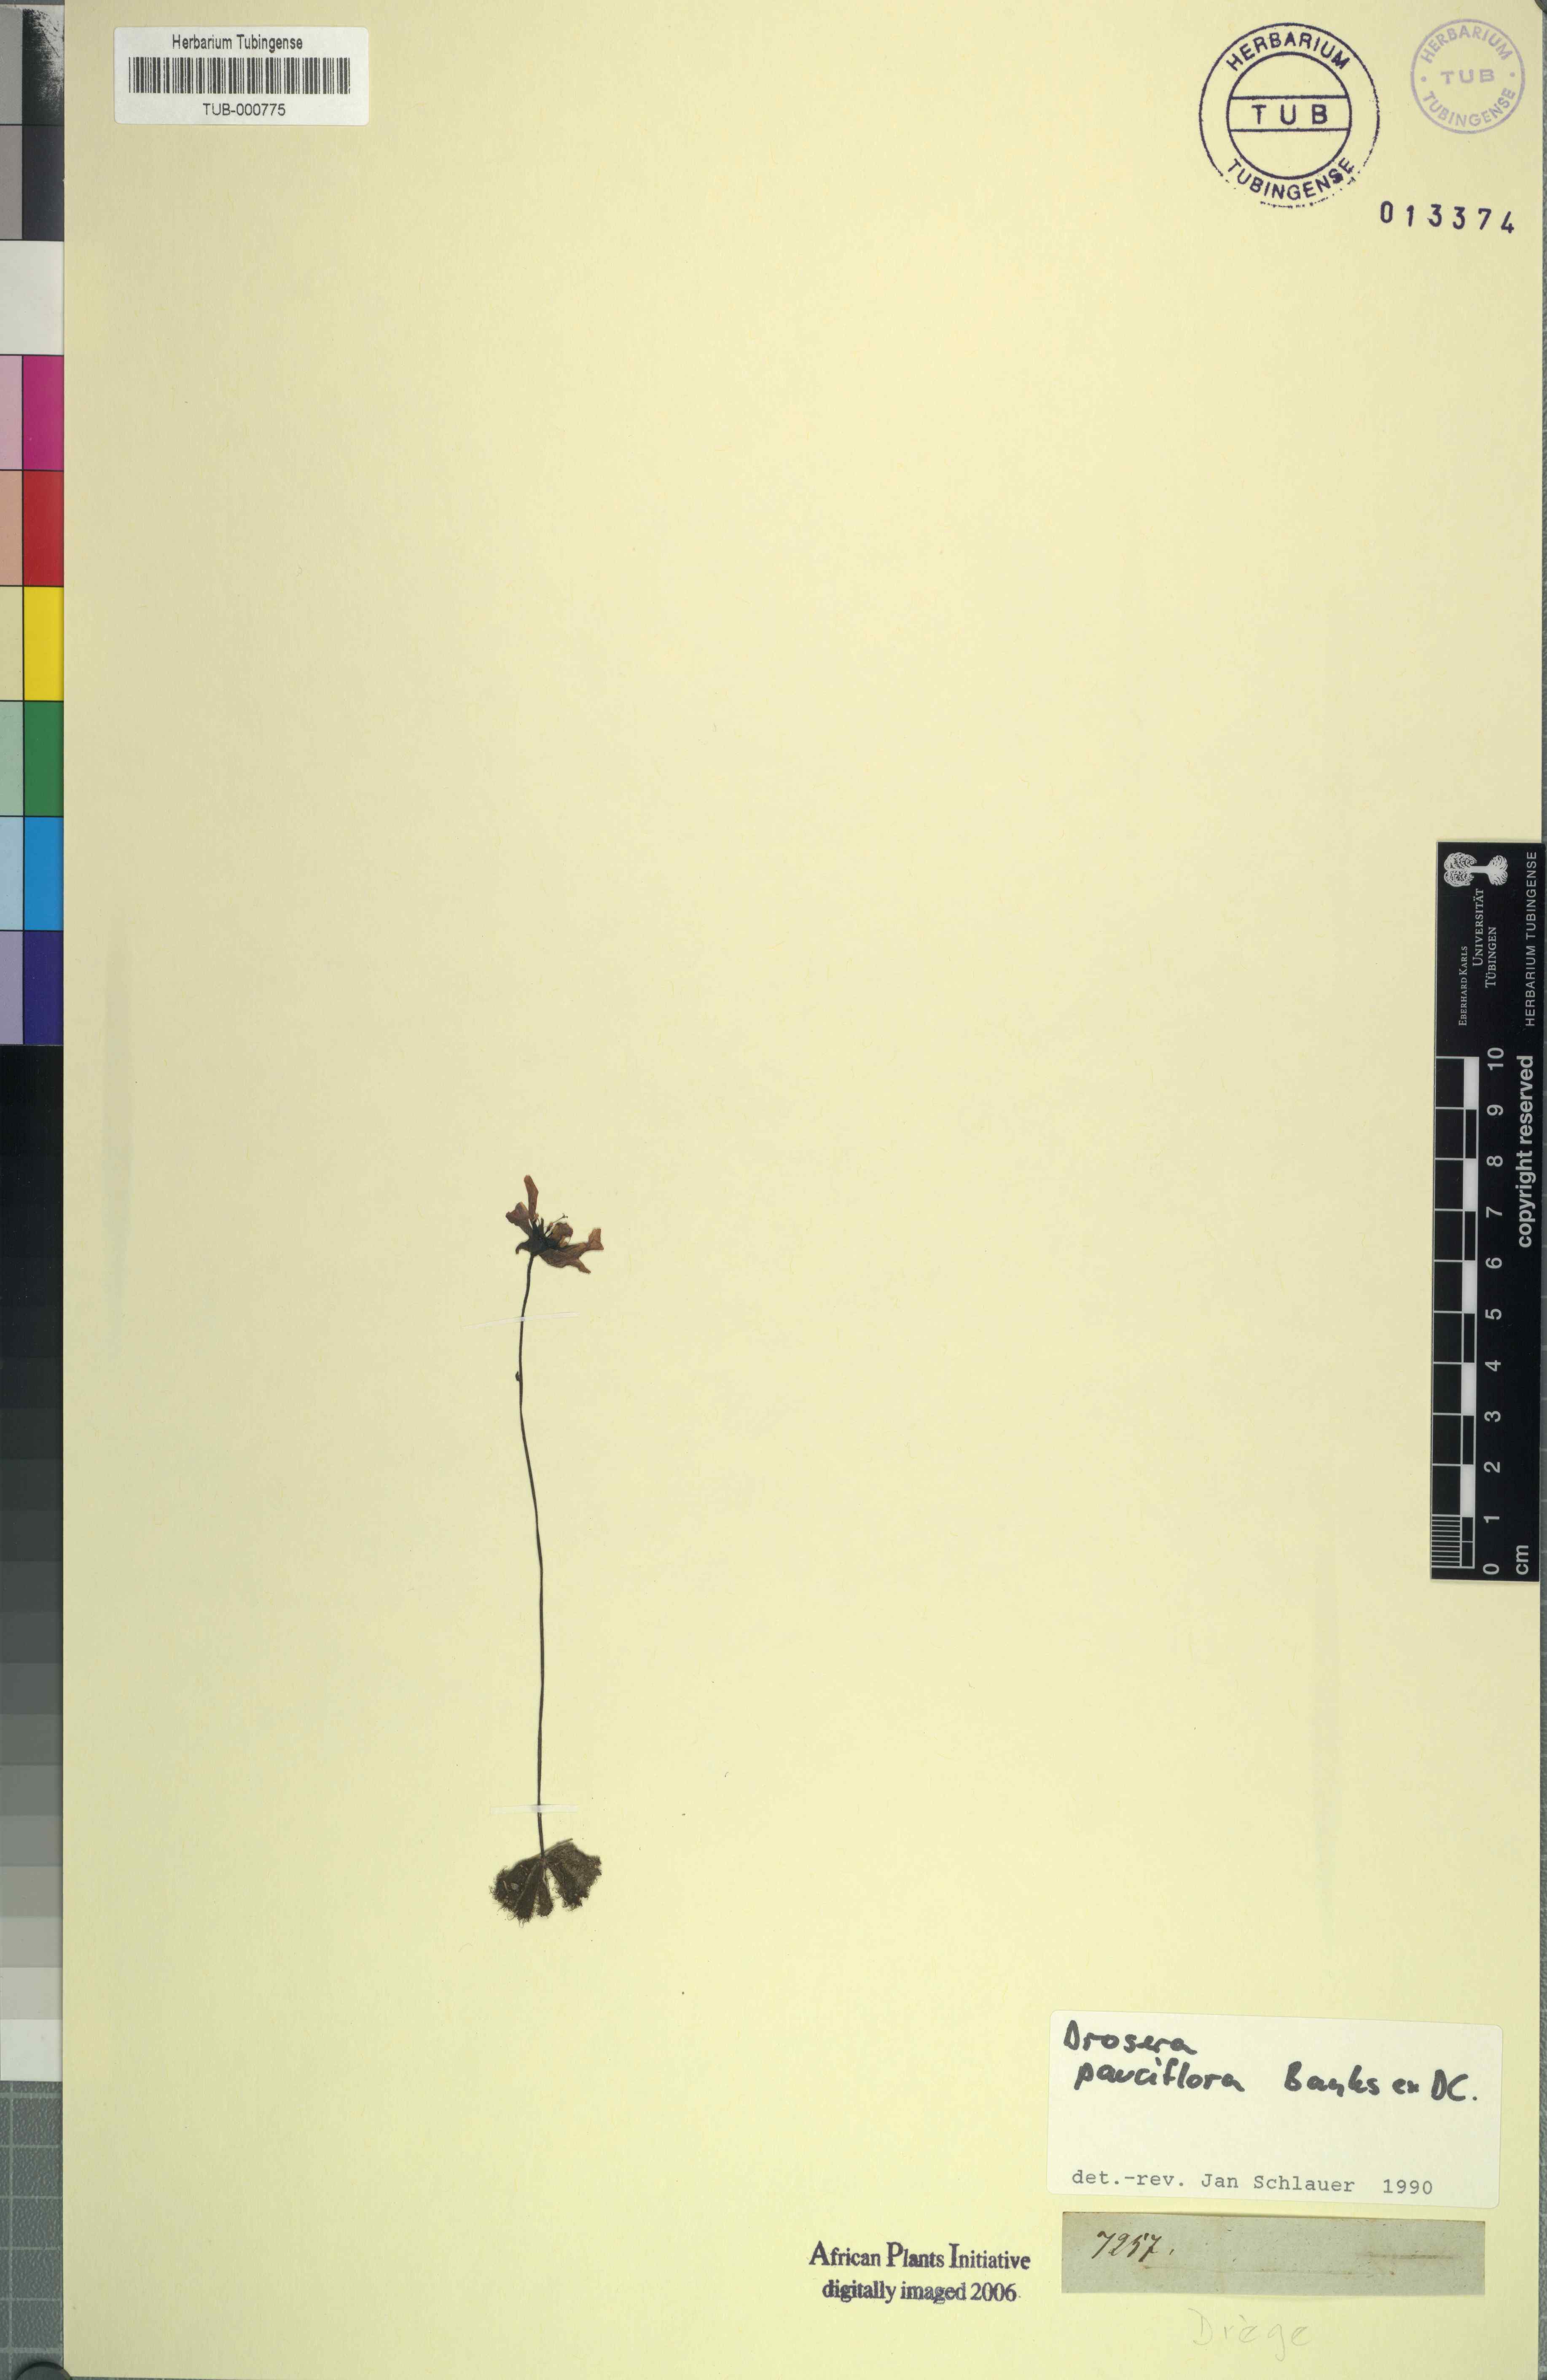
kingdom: Plantae
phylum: Tracheophyta
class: Magnoliopsida
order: Caryophyllales
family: Droseraceae
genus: Drosera
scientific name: Drosera pauciflora
